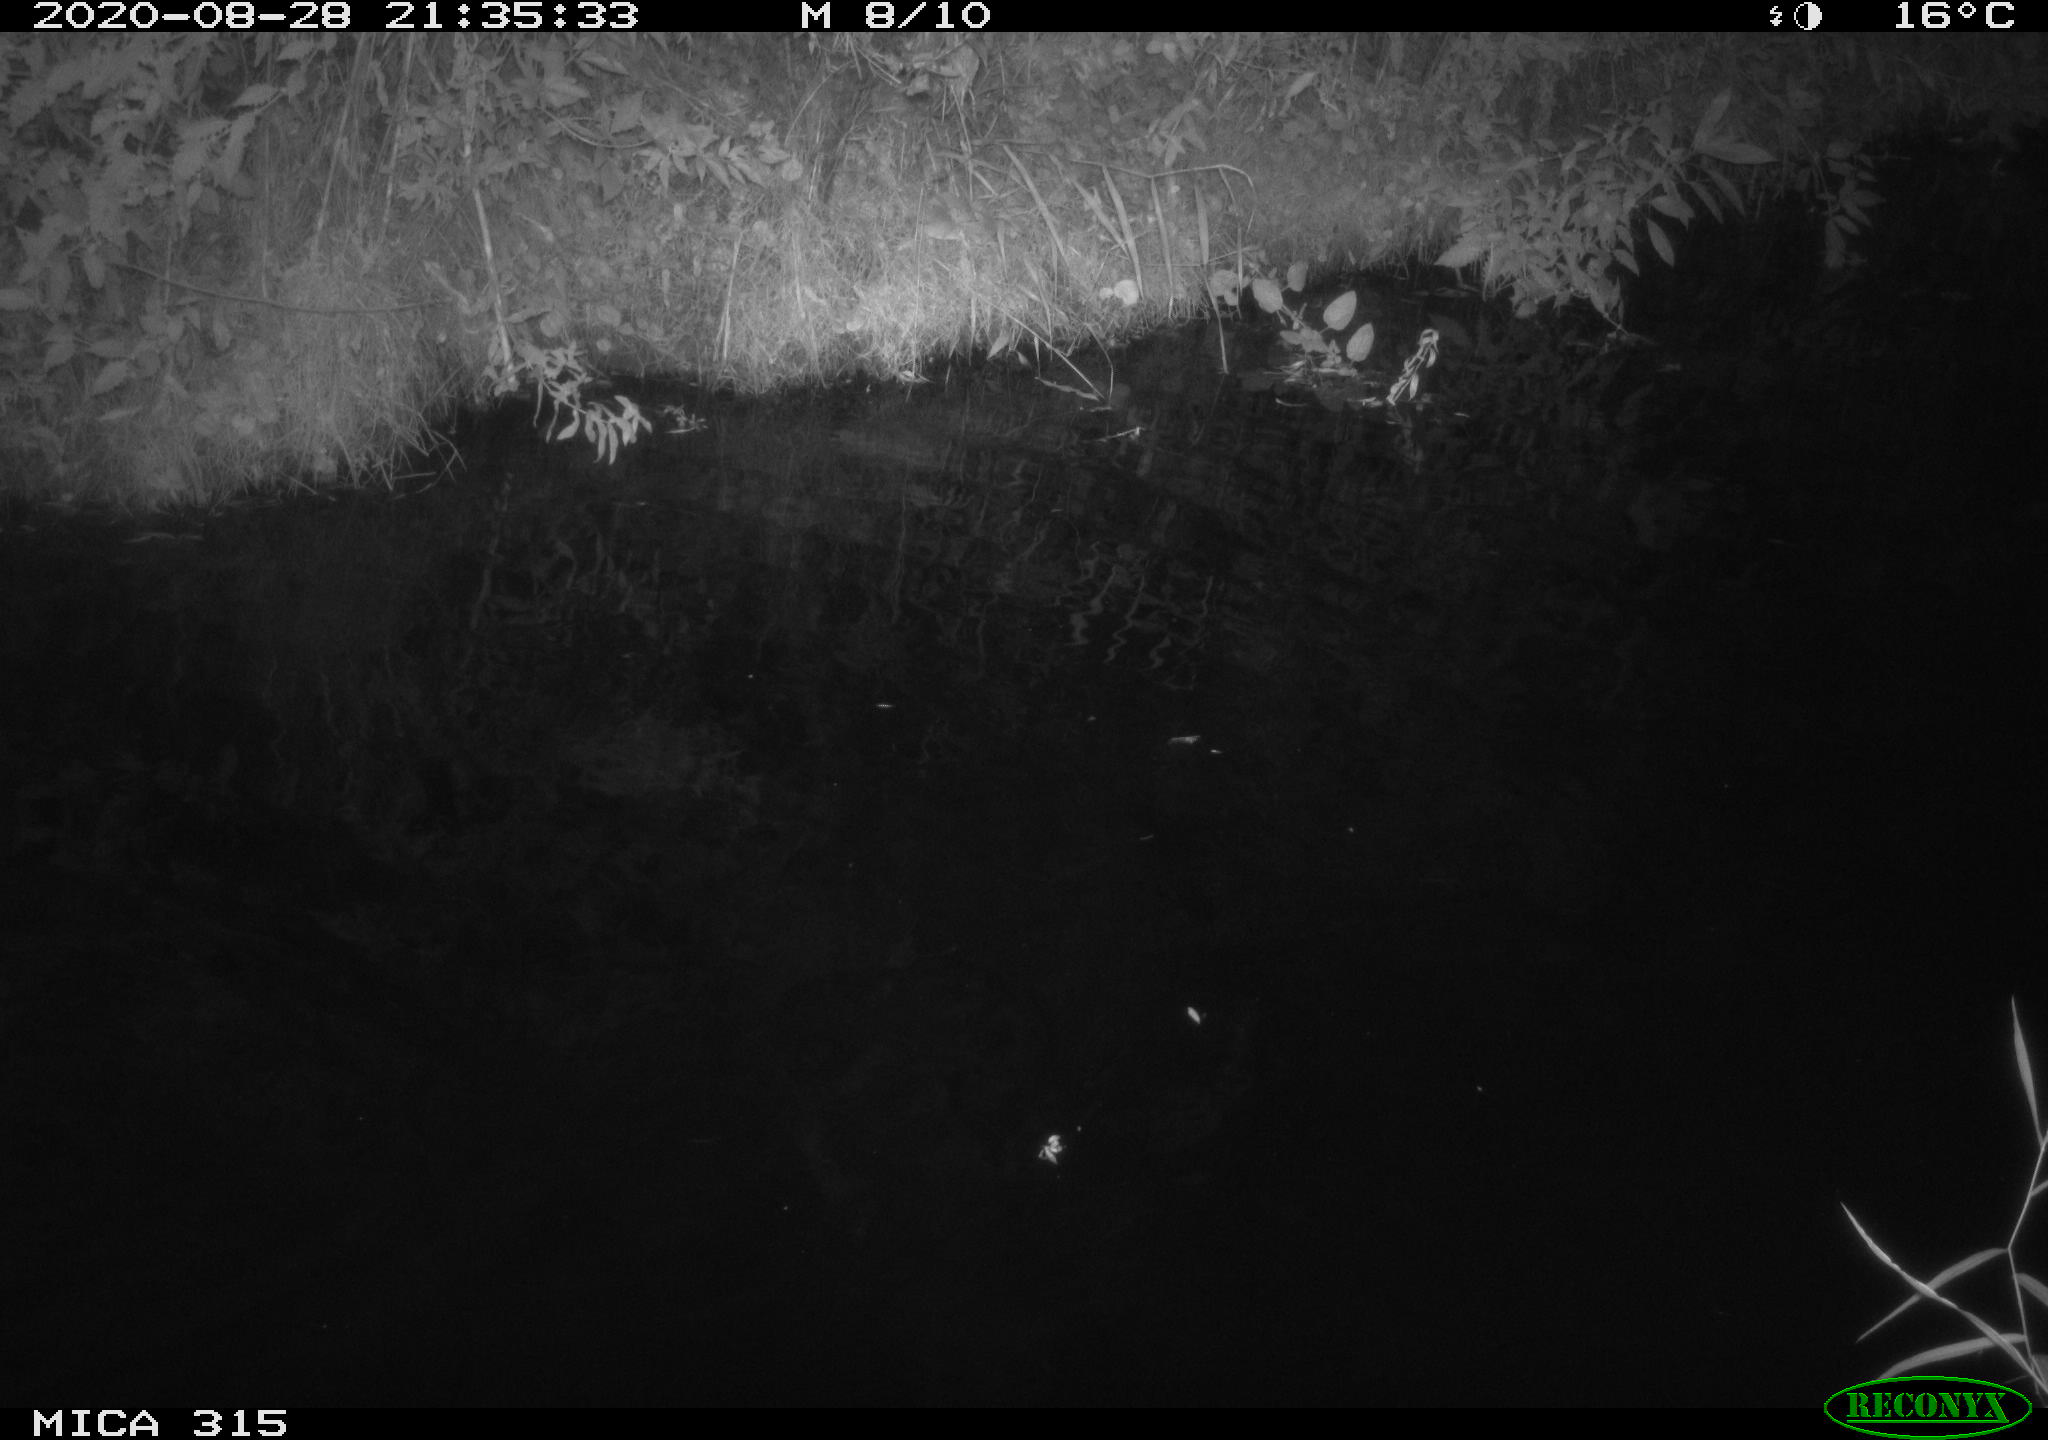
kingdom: Animalia
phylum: Chordata
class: Aves
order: Anseriformes
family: Anatidae
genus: Anas
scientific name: Anas platyrhynchos
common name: Mallard
